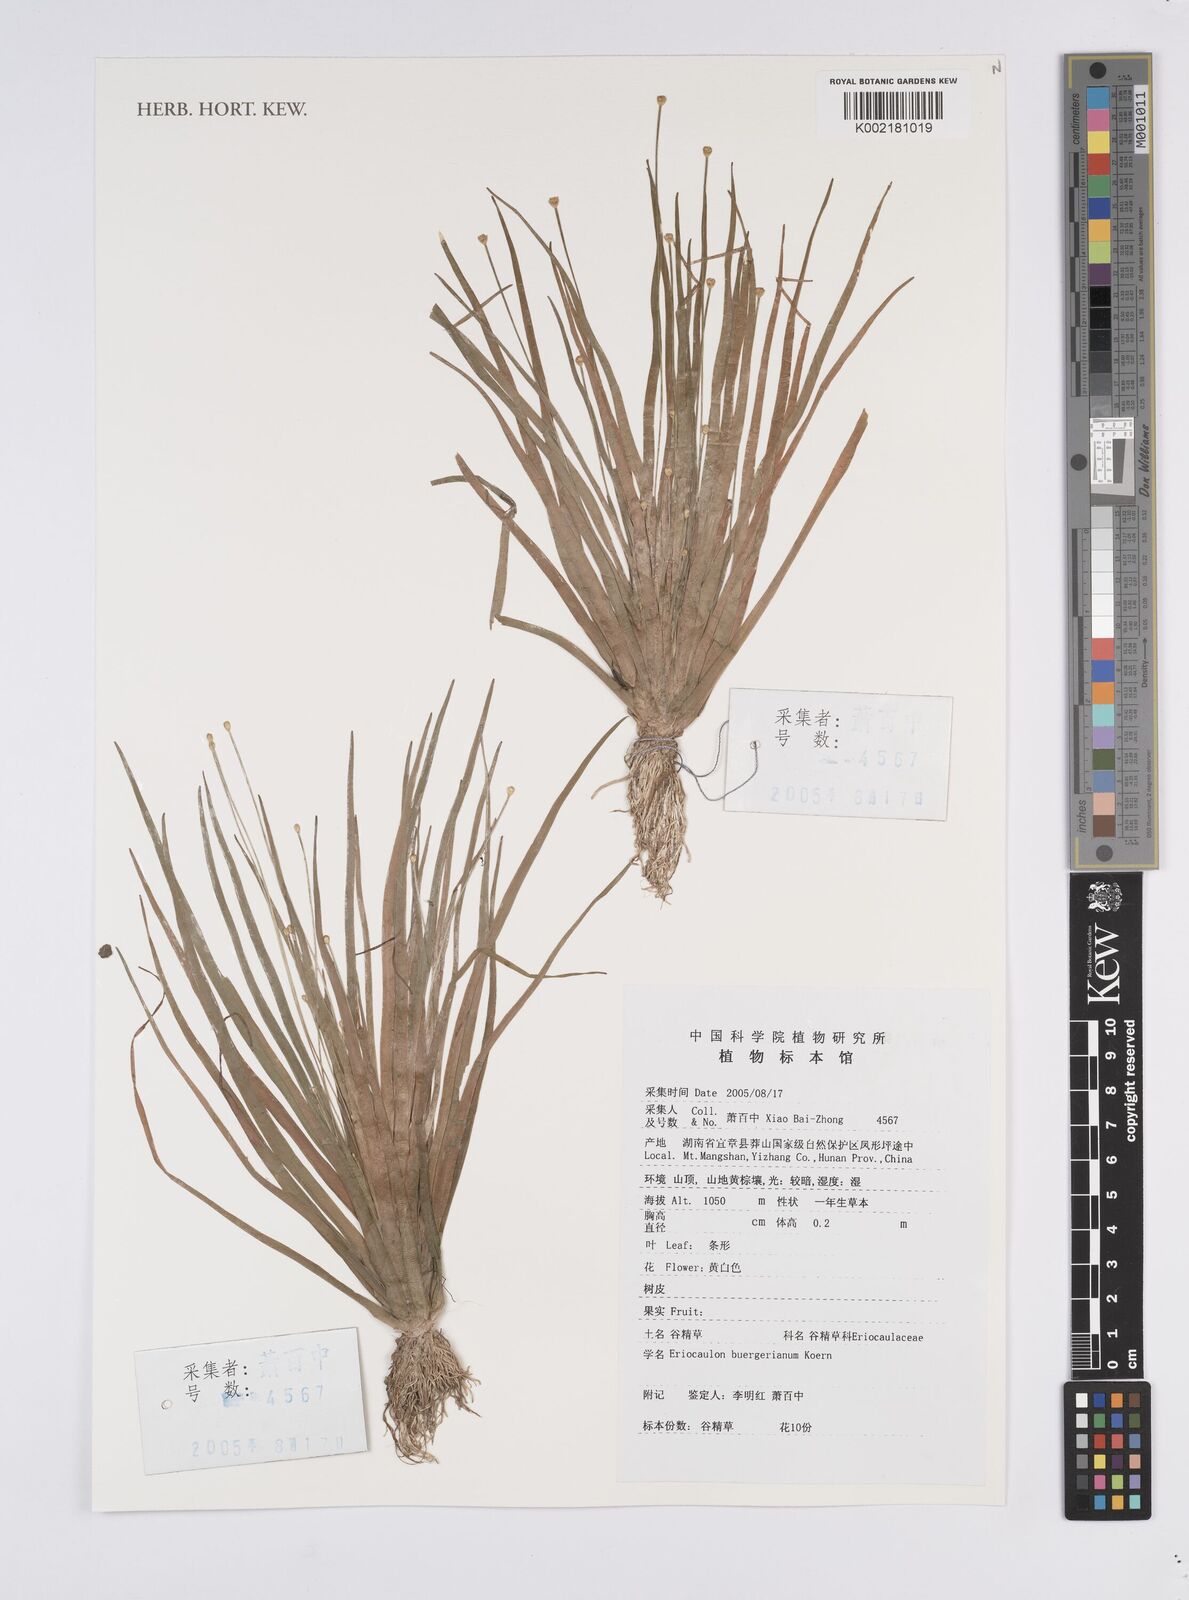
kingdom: Plantae
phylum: Tracheophyta
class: Liliopsida
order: Poales
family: Eriocaulaceae
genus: Eriocaulon
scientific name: Eriocaulon buergerianum
